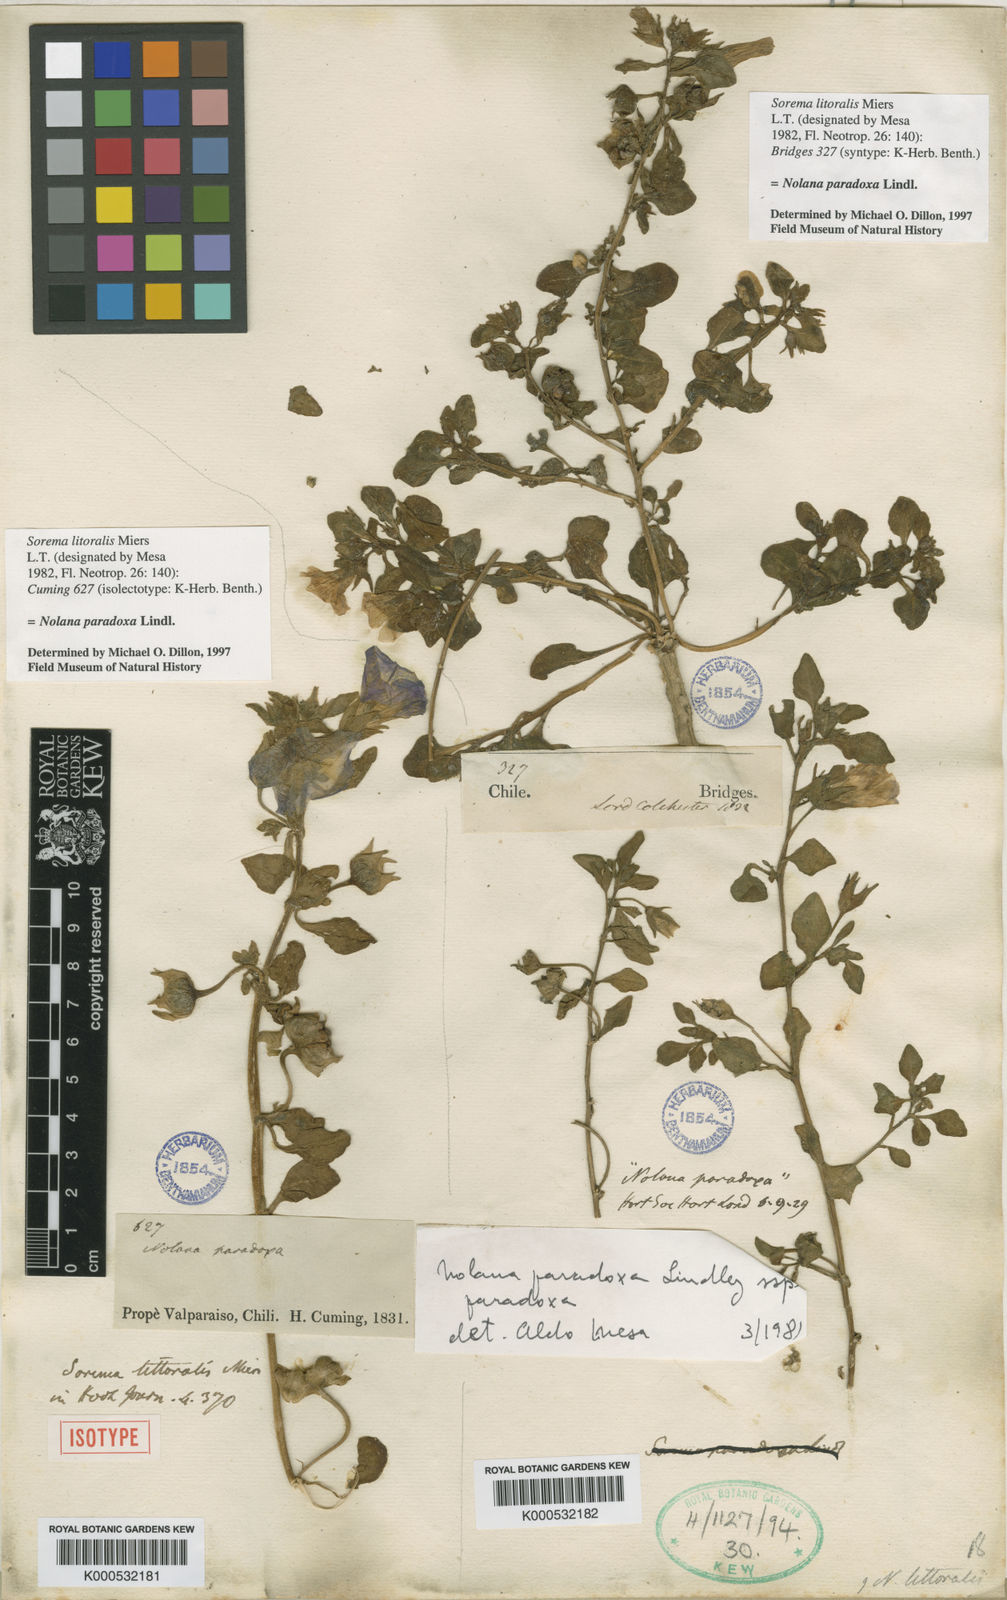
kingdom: Plantae
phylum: Tracheophyta
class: Magnoliopsida
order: Solanales
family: Solanaceae
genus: Nolana
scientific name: Nolana paradoxa
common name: Chilean-bellflower
